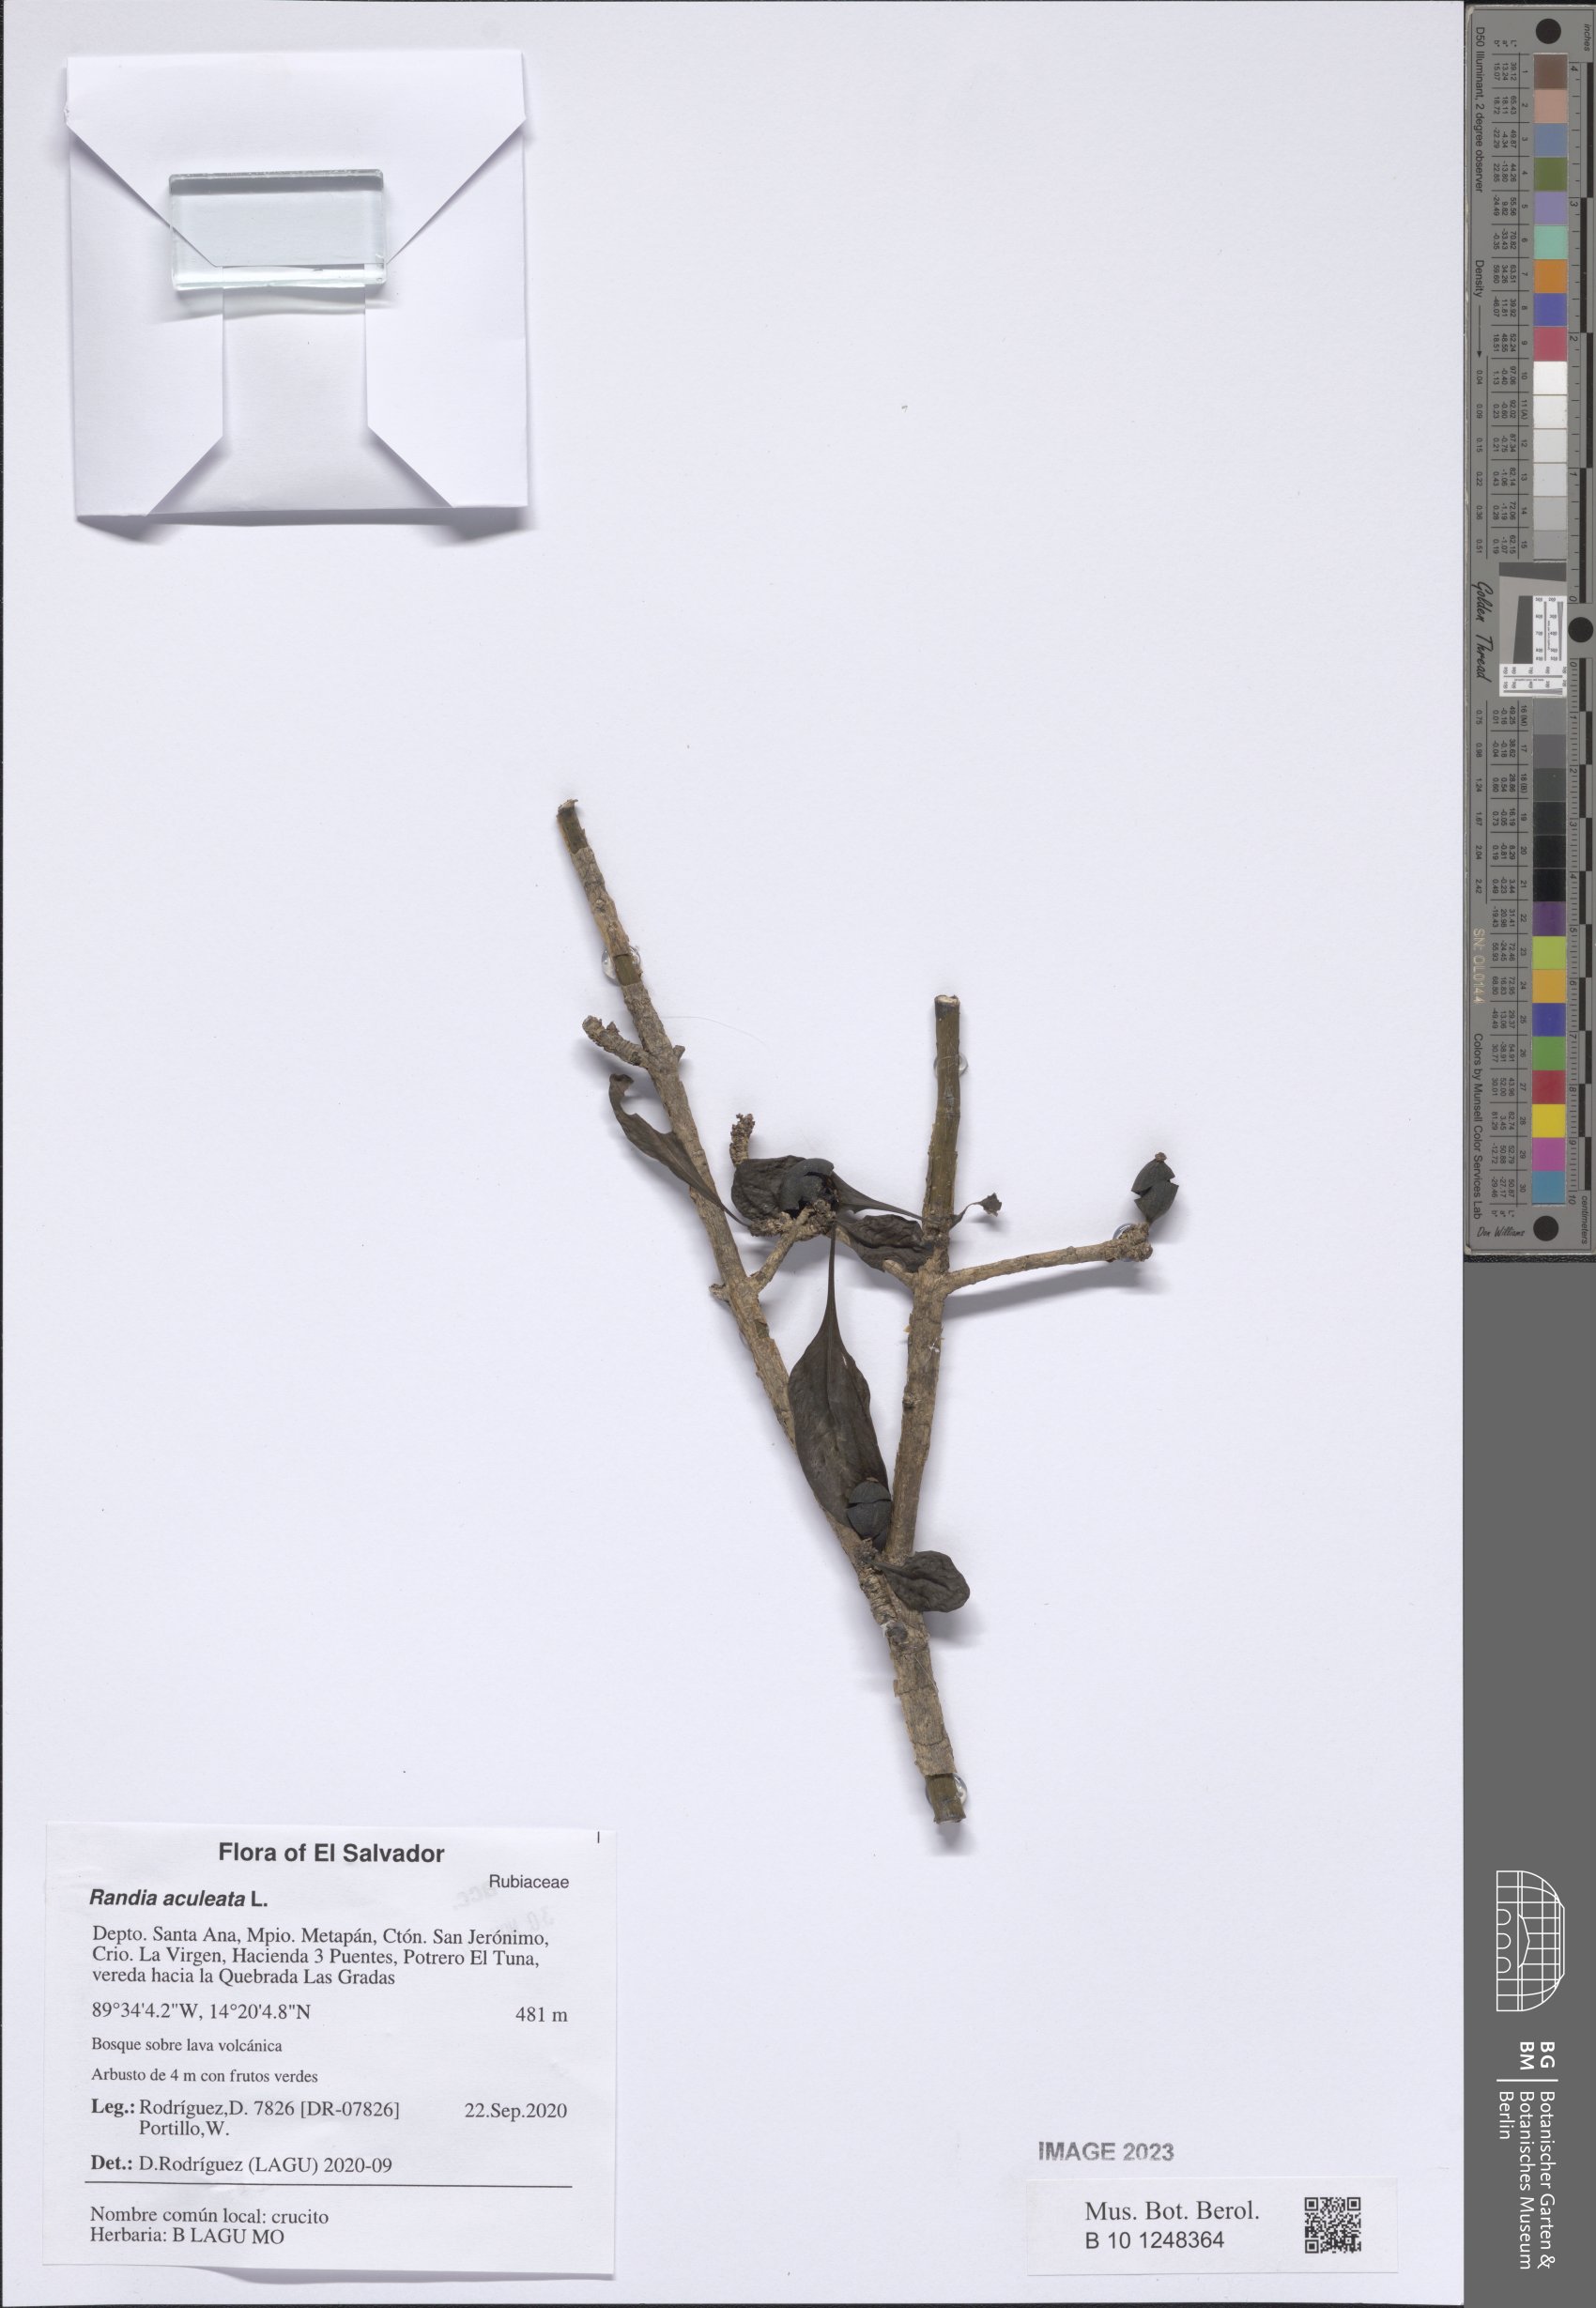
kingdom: Plantae
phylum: Tracheophyta
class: Magnoliopsida
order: Gentianales
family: Rubiaceae
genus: Randia
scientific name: Randia aculeata
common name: Inkberry
